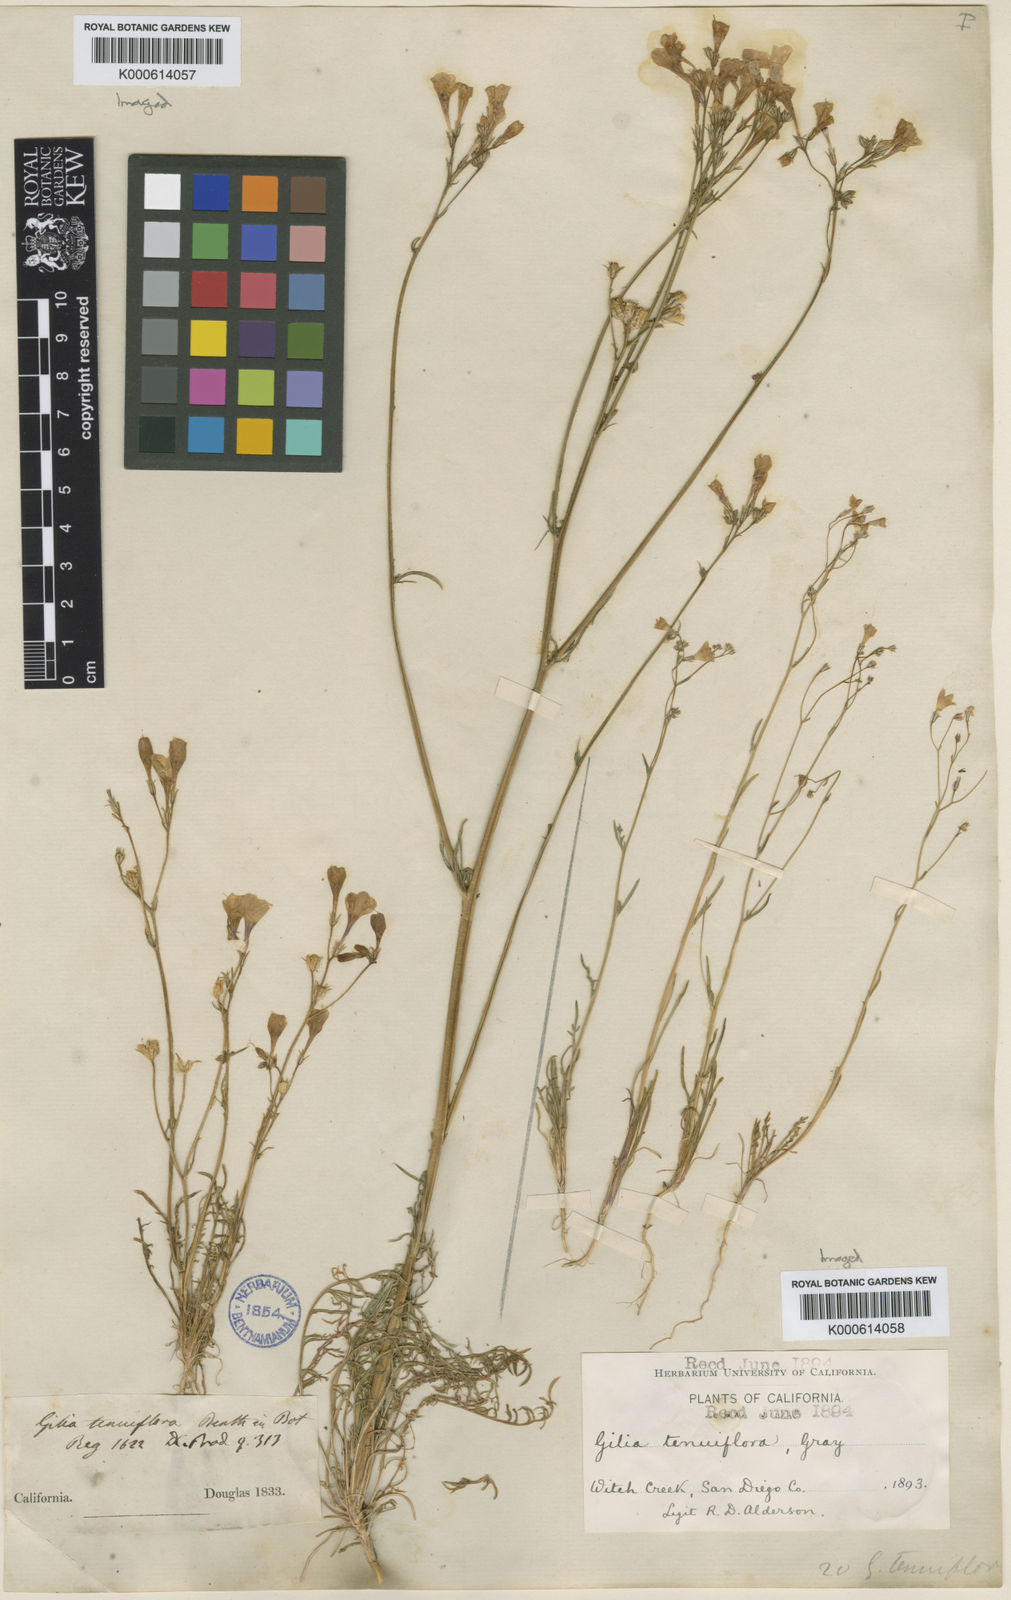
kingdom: Plantae
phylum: Tracheophyta
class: Magnoliopsida
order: Ericales
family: Polemoniaceae
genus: Gilia
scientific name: Gilia tenuiflora
